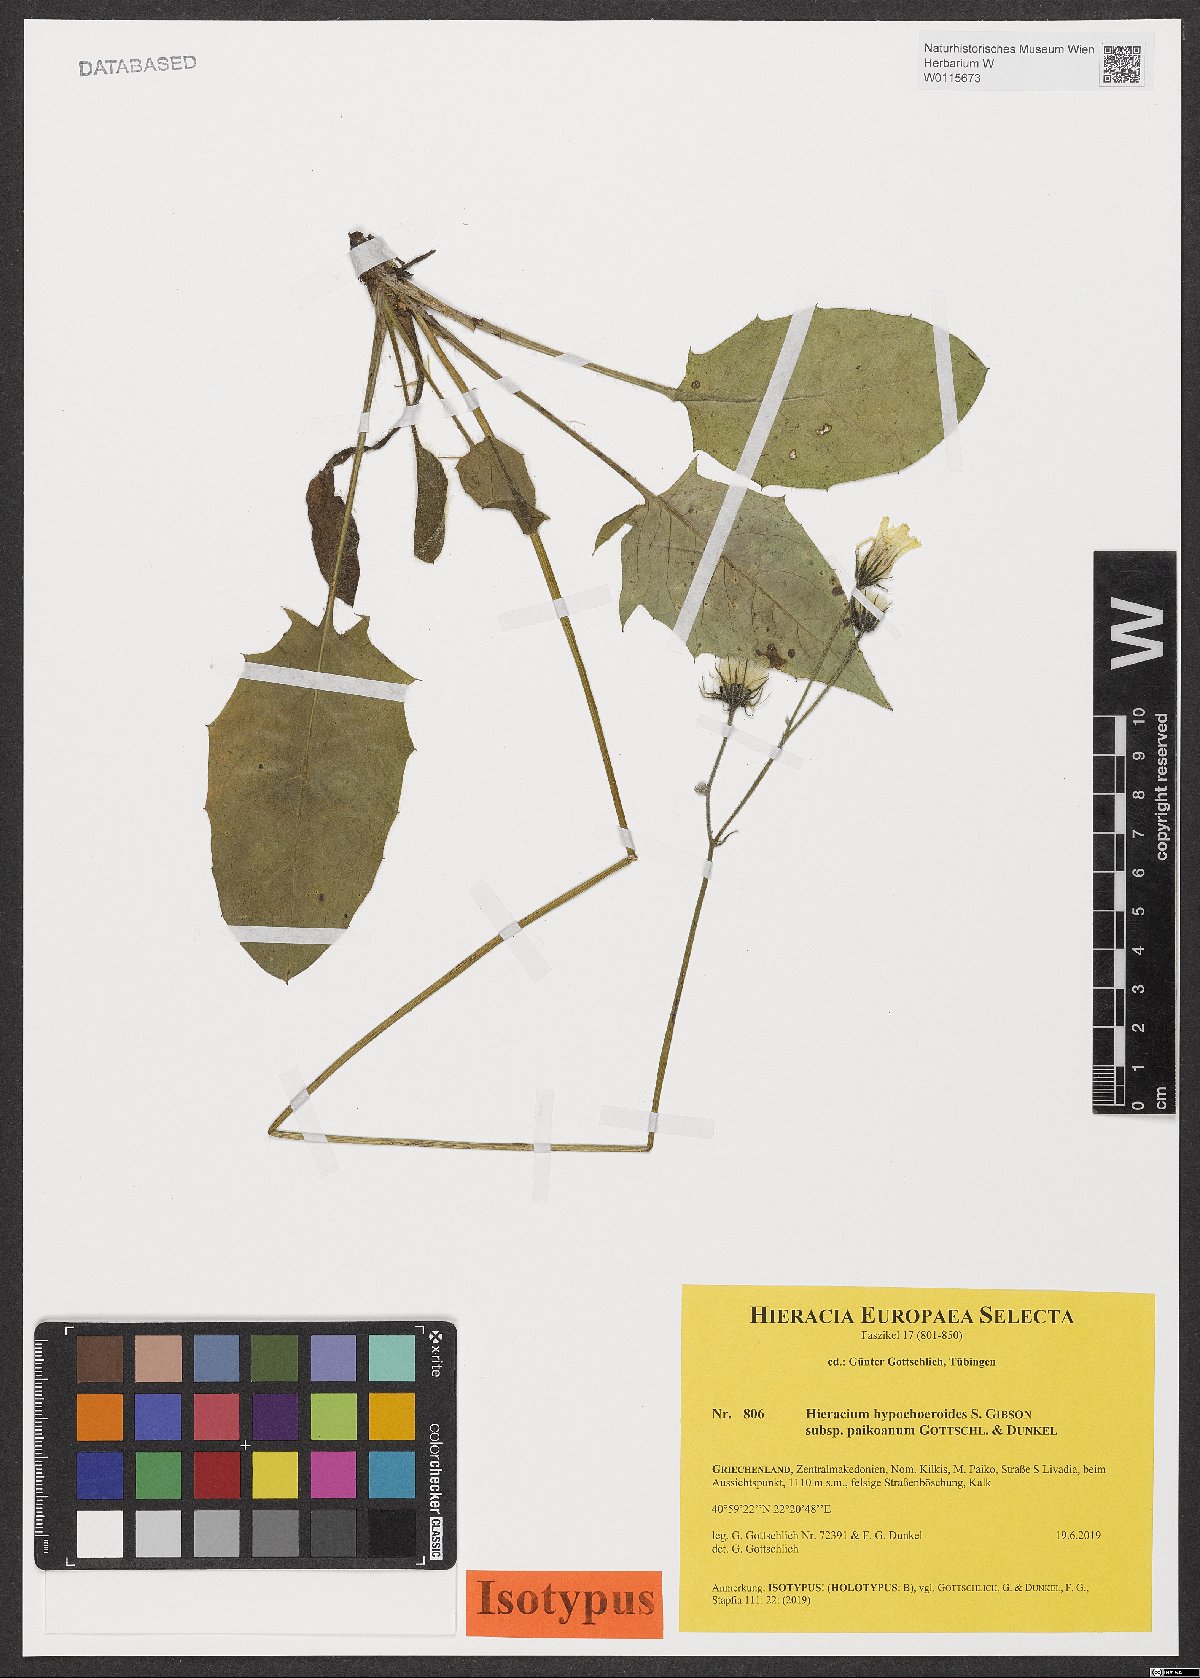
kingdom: Plantae
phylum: Tracheophyta
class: Magnoliopsida
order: Asterales
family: Asteraceae
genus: Hieracium
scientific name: Hieracium hypochoeroides
